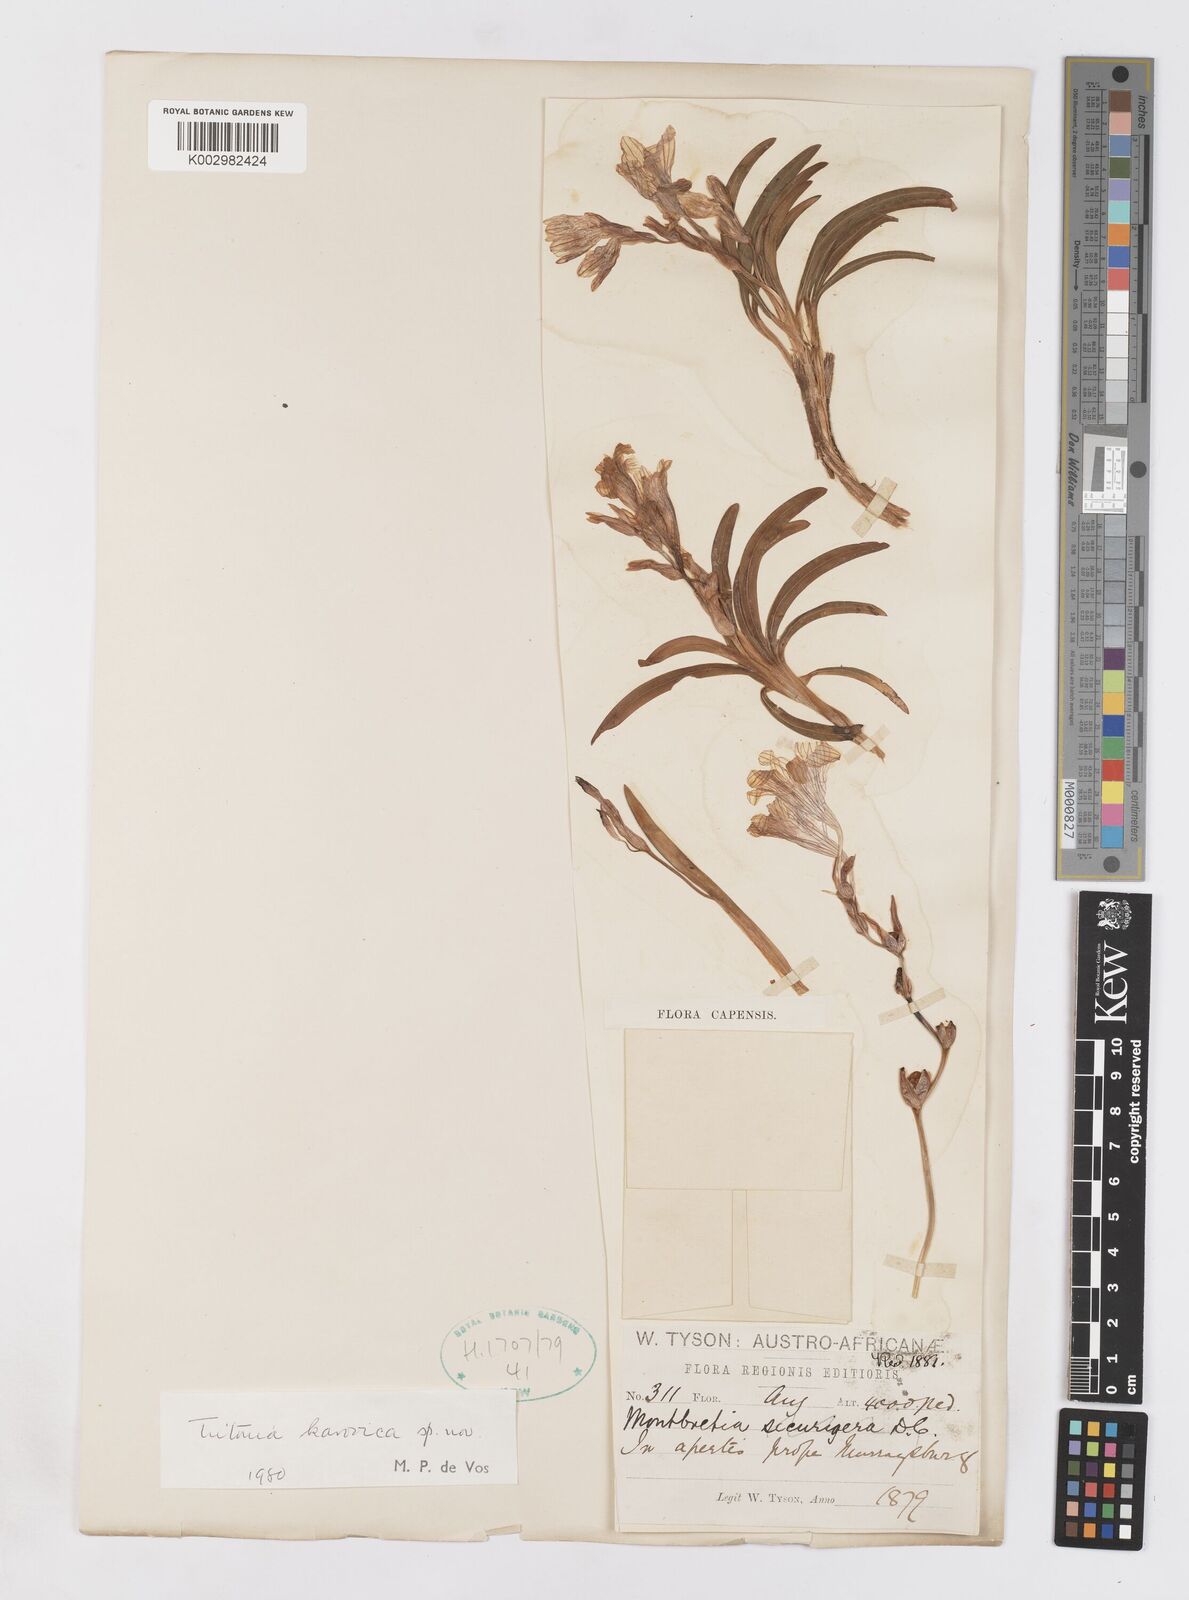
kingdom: Plantae
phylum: Tracheophyta
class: Liliopsida
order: Asparagales
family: Iridaceae
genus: Tritonia
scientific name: Tritonia karooica
